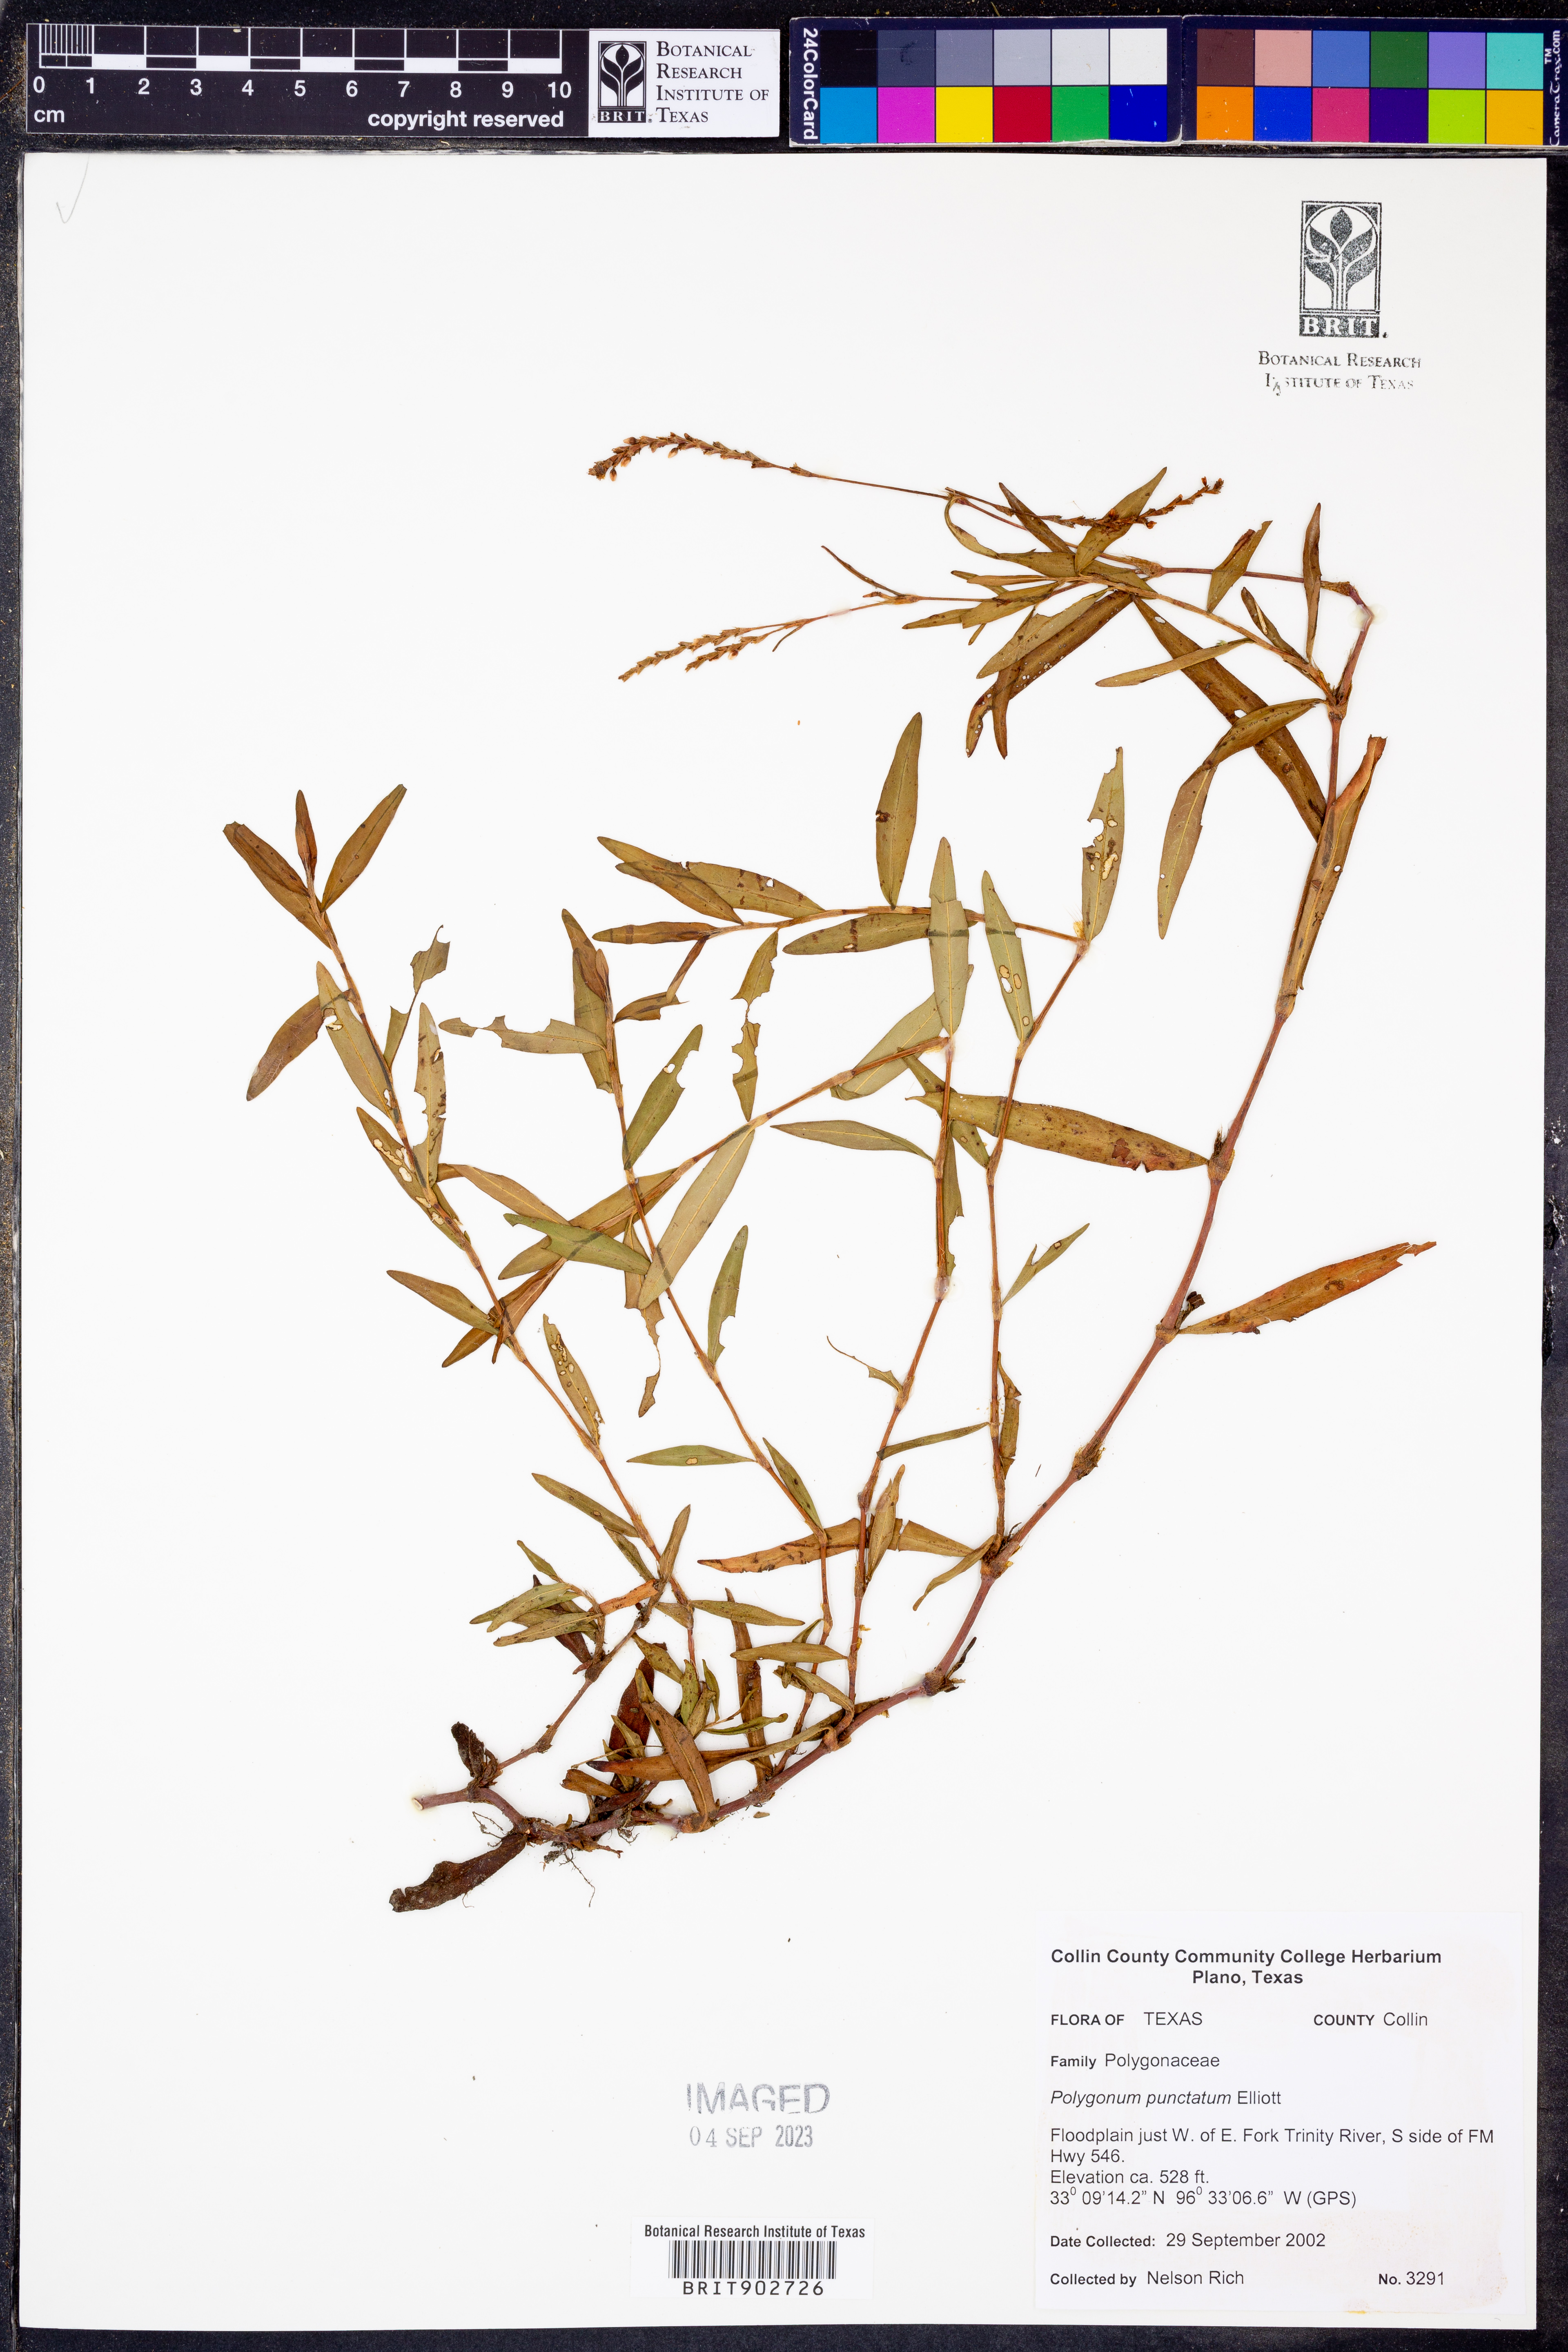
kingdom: Plantae
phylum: Tracheophyta
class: Magnoliopsida
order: Caryophyllales
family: Polygonaceae
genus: Persicaria
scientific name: Persicaria punctata
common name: Dotted smartweed
